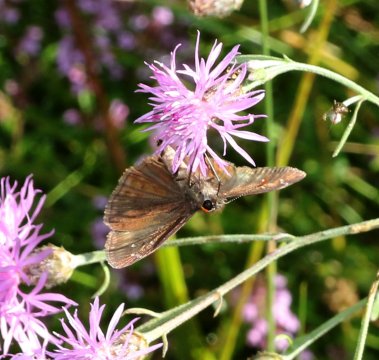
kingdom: Animalia
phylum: Arthropoda
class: Insecta
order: Lepidoptera
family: Hesperiidae
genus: Gesta
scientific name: Gesta
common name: Horace's Duskywing
